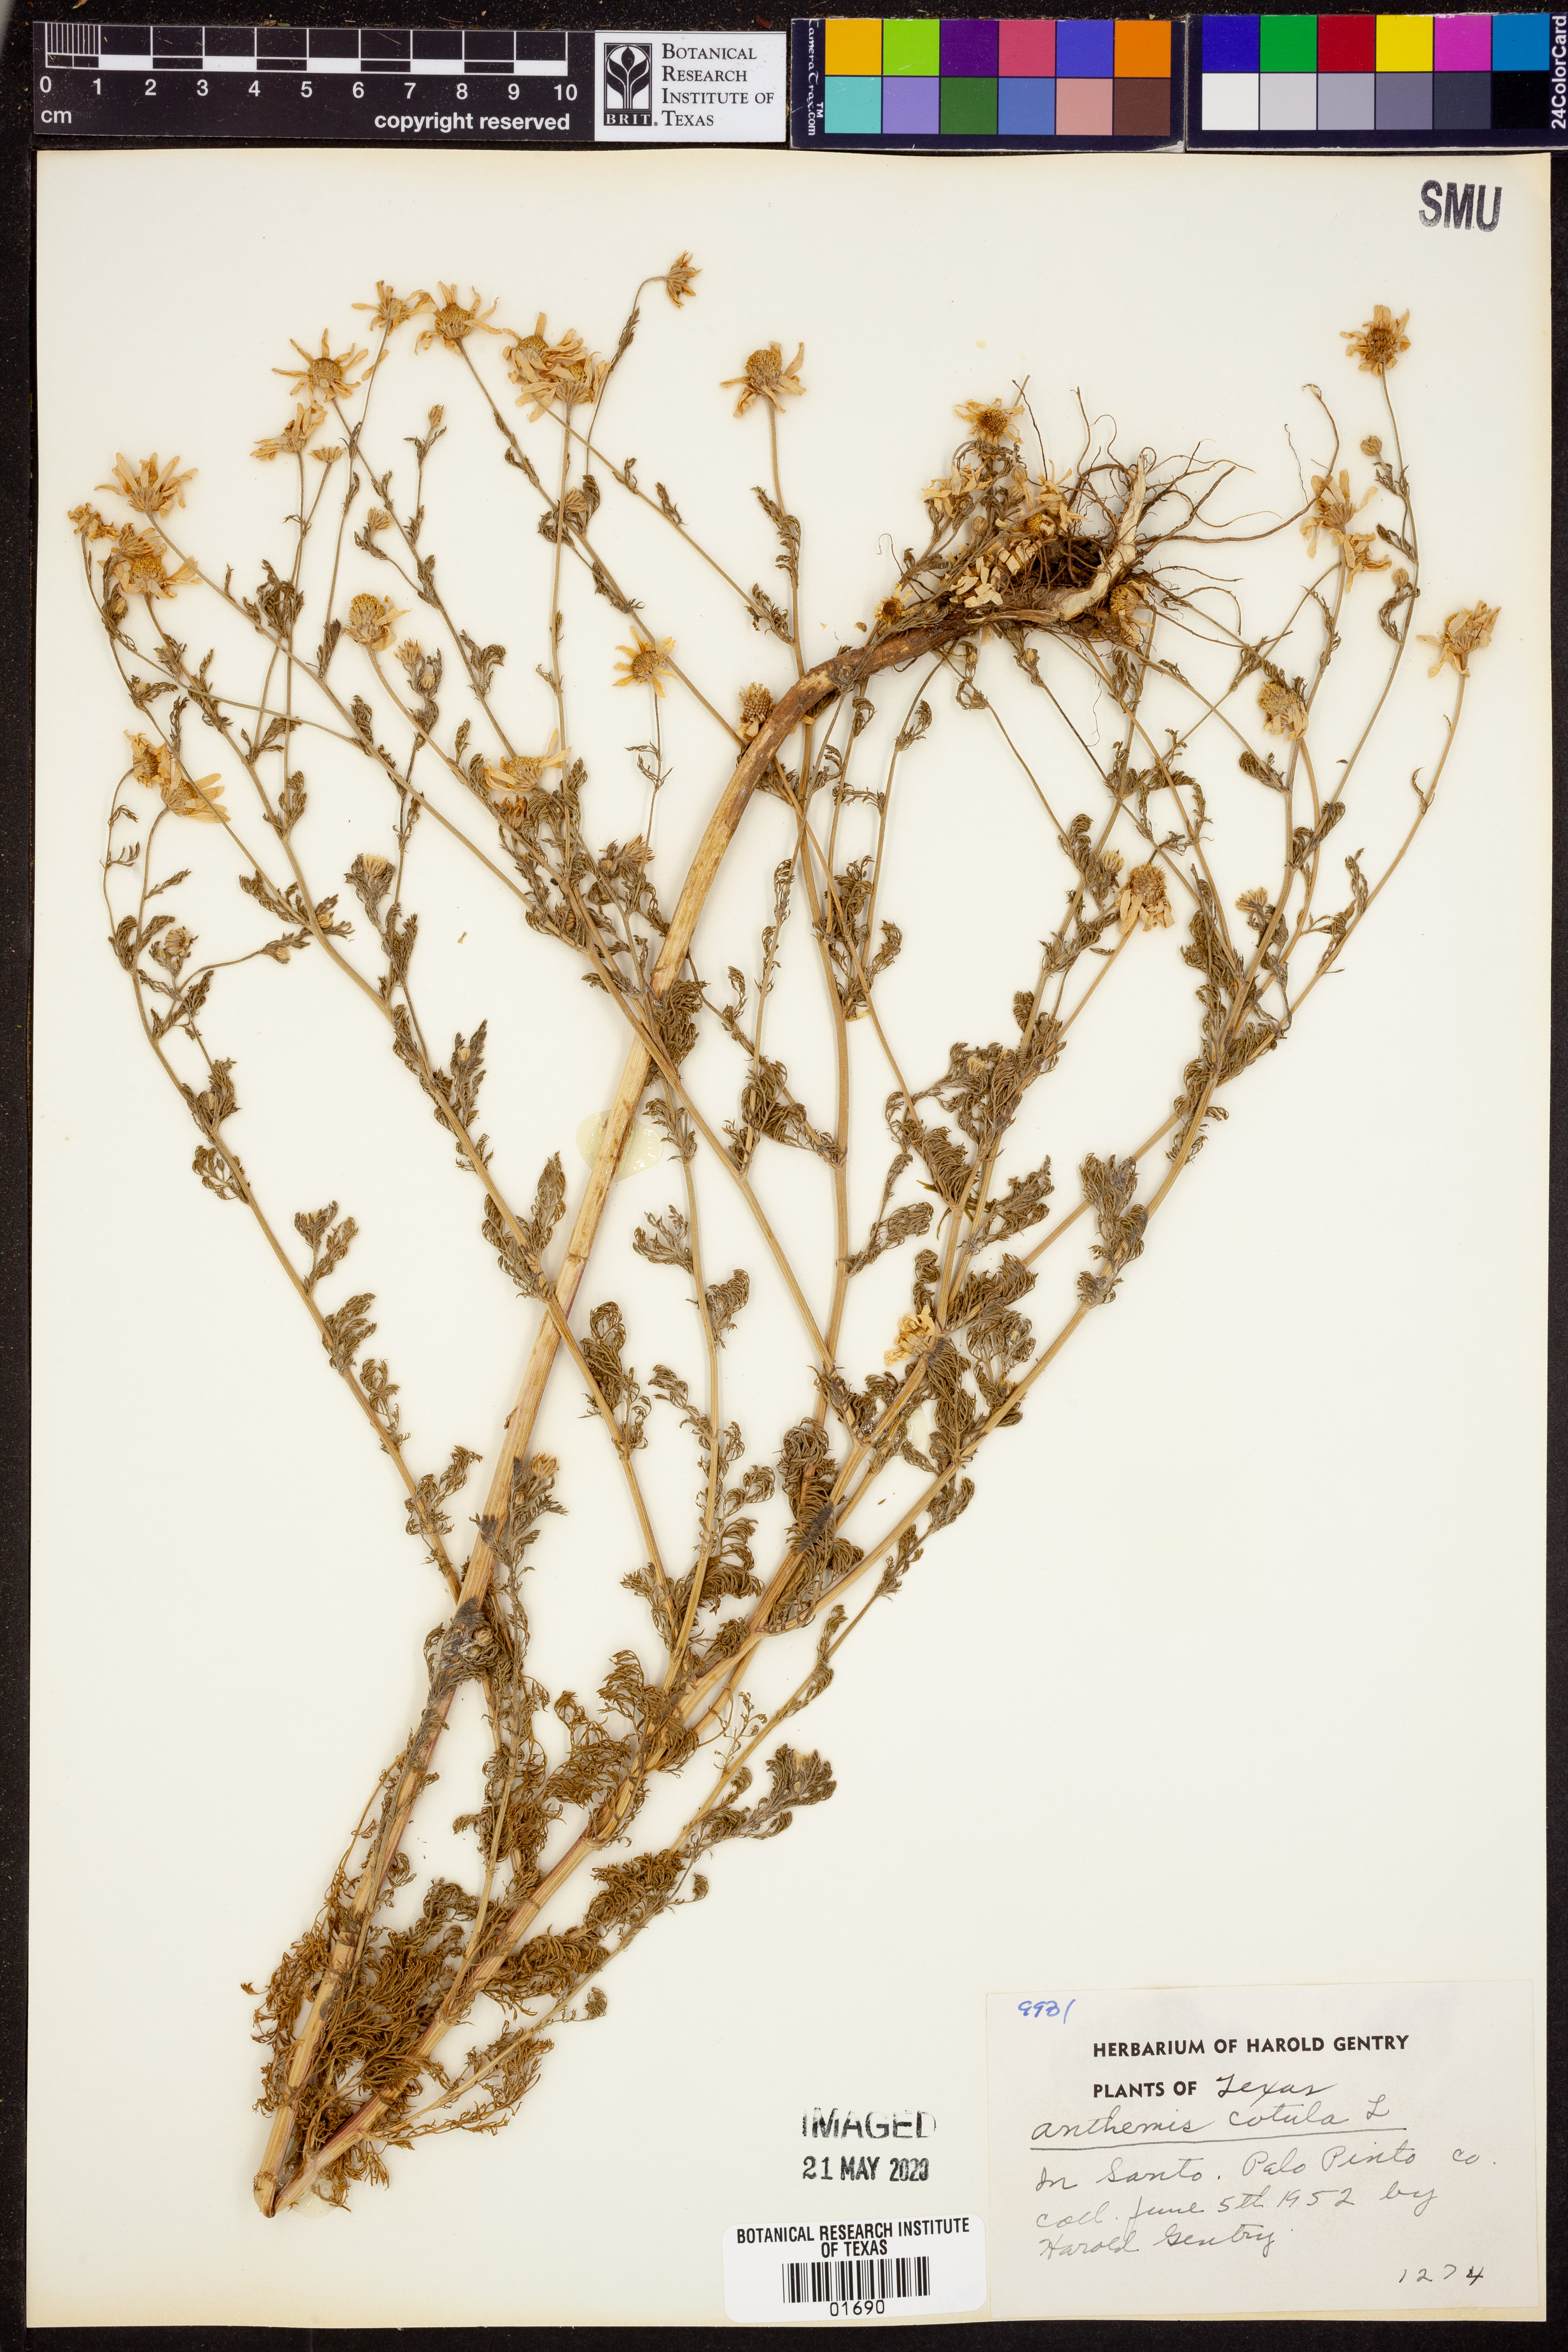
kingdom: Plantae
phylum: Tracheophyta
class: Magnoliopsida
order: Asterales
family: Asteraceae
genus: Anthemis
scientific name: Anthemis cotula
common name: Stinking chamomile
